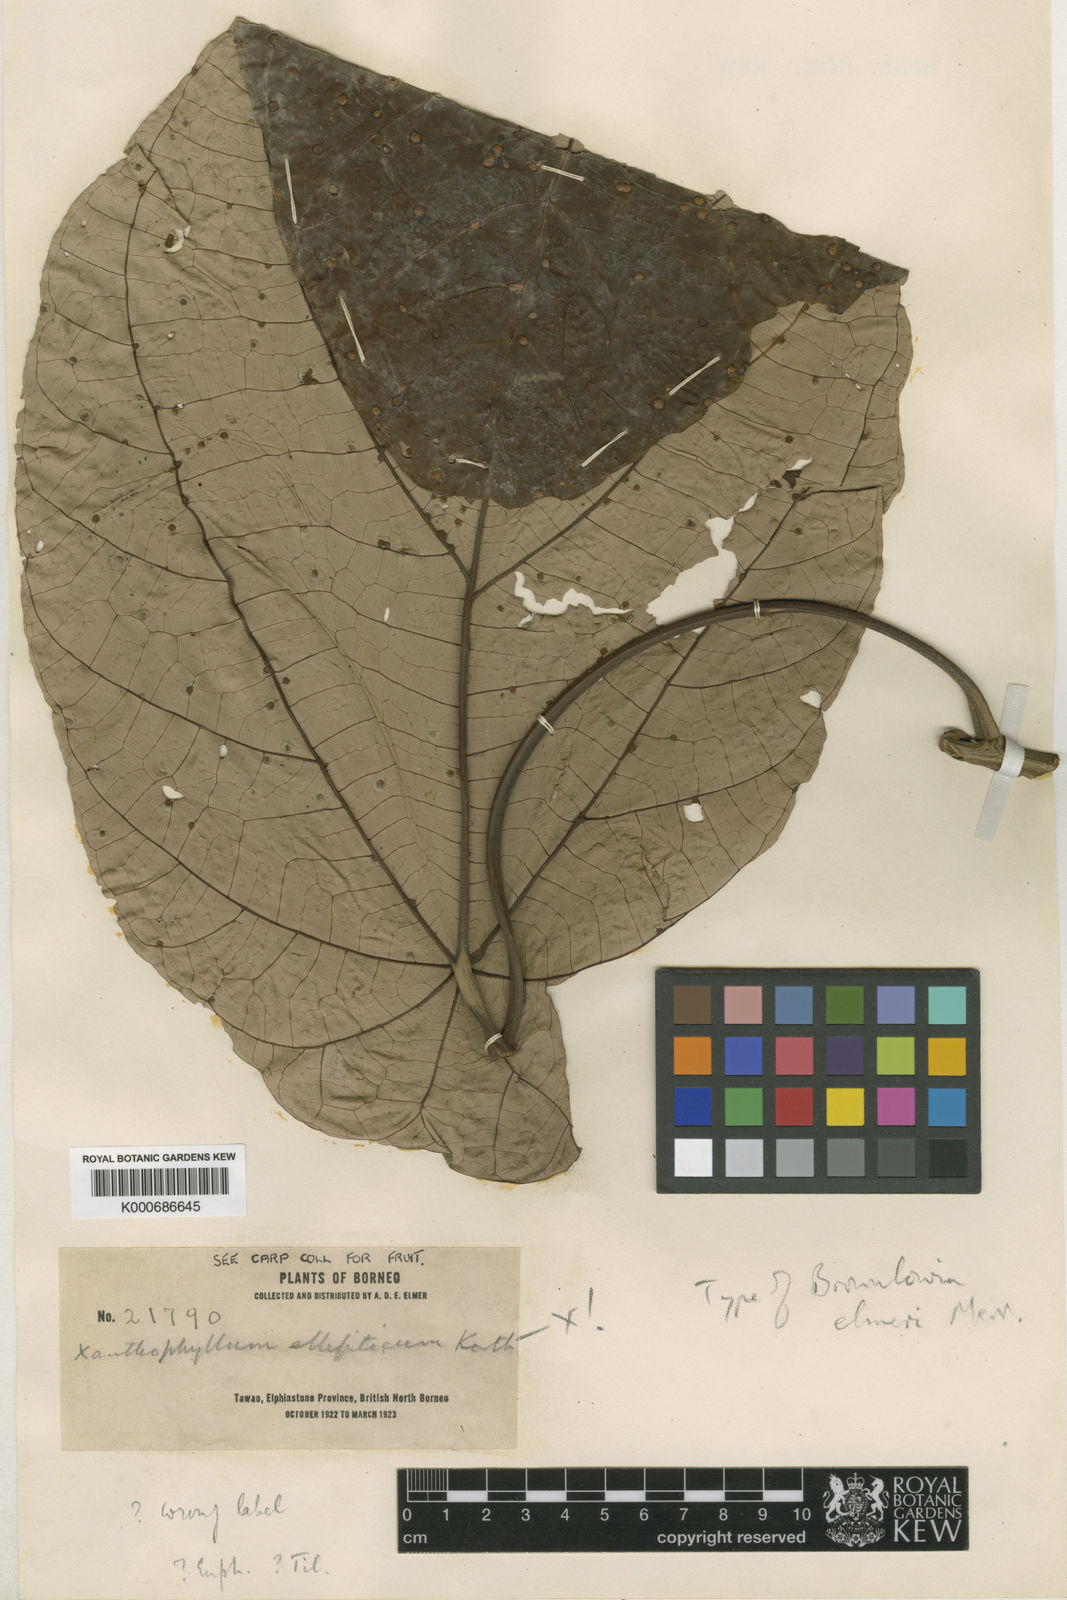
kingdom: Plantae
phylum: Tracheophyta
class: Magnoliopsida
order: Malvales
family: Malvaceae
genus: Brownlowia
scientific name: Brownlowia peltata
